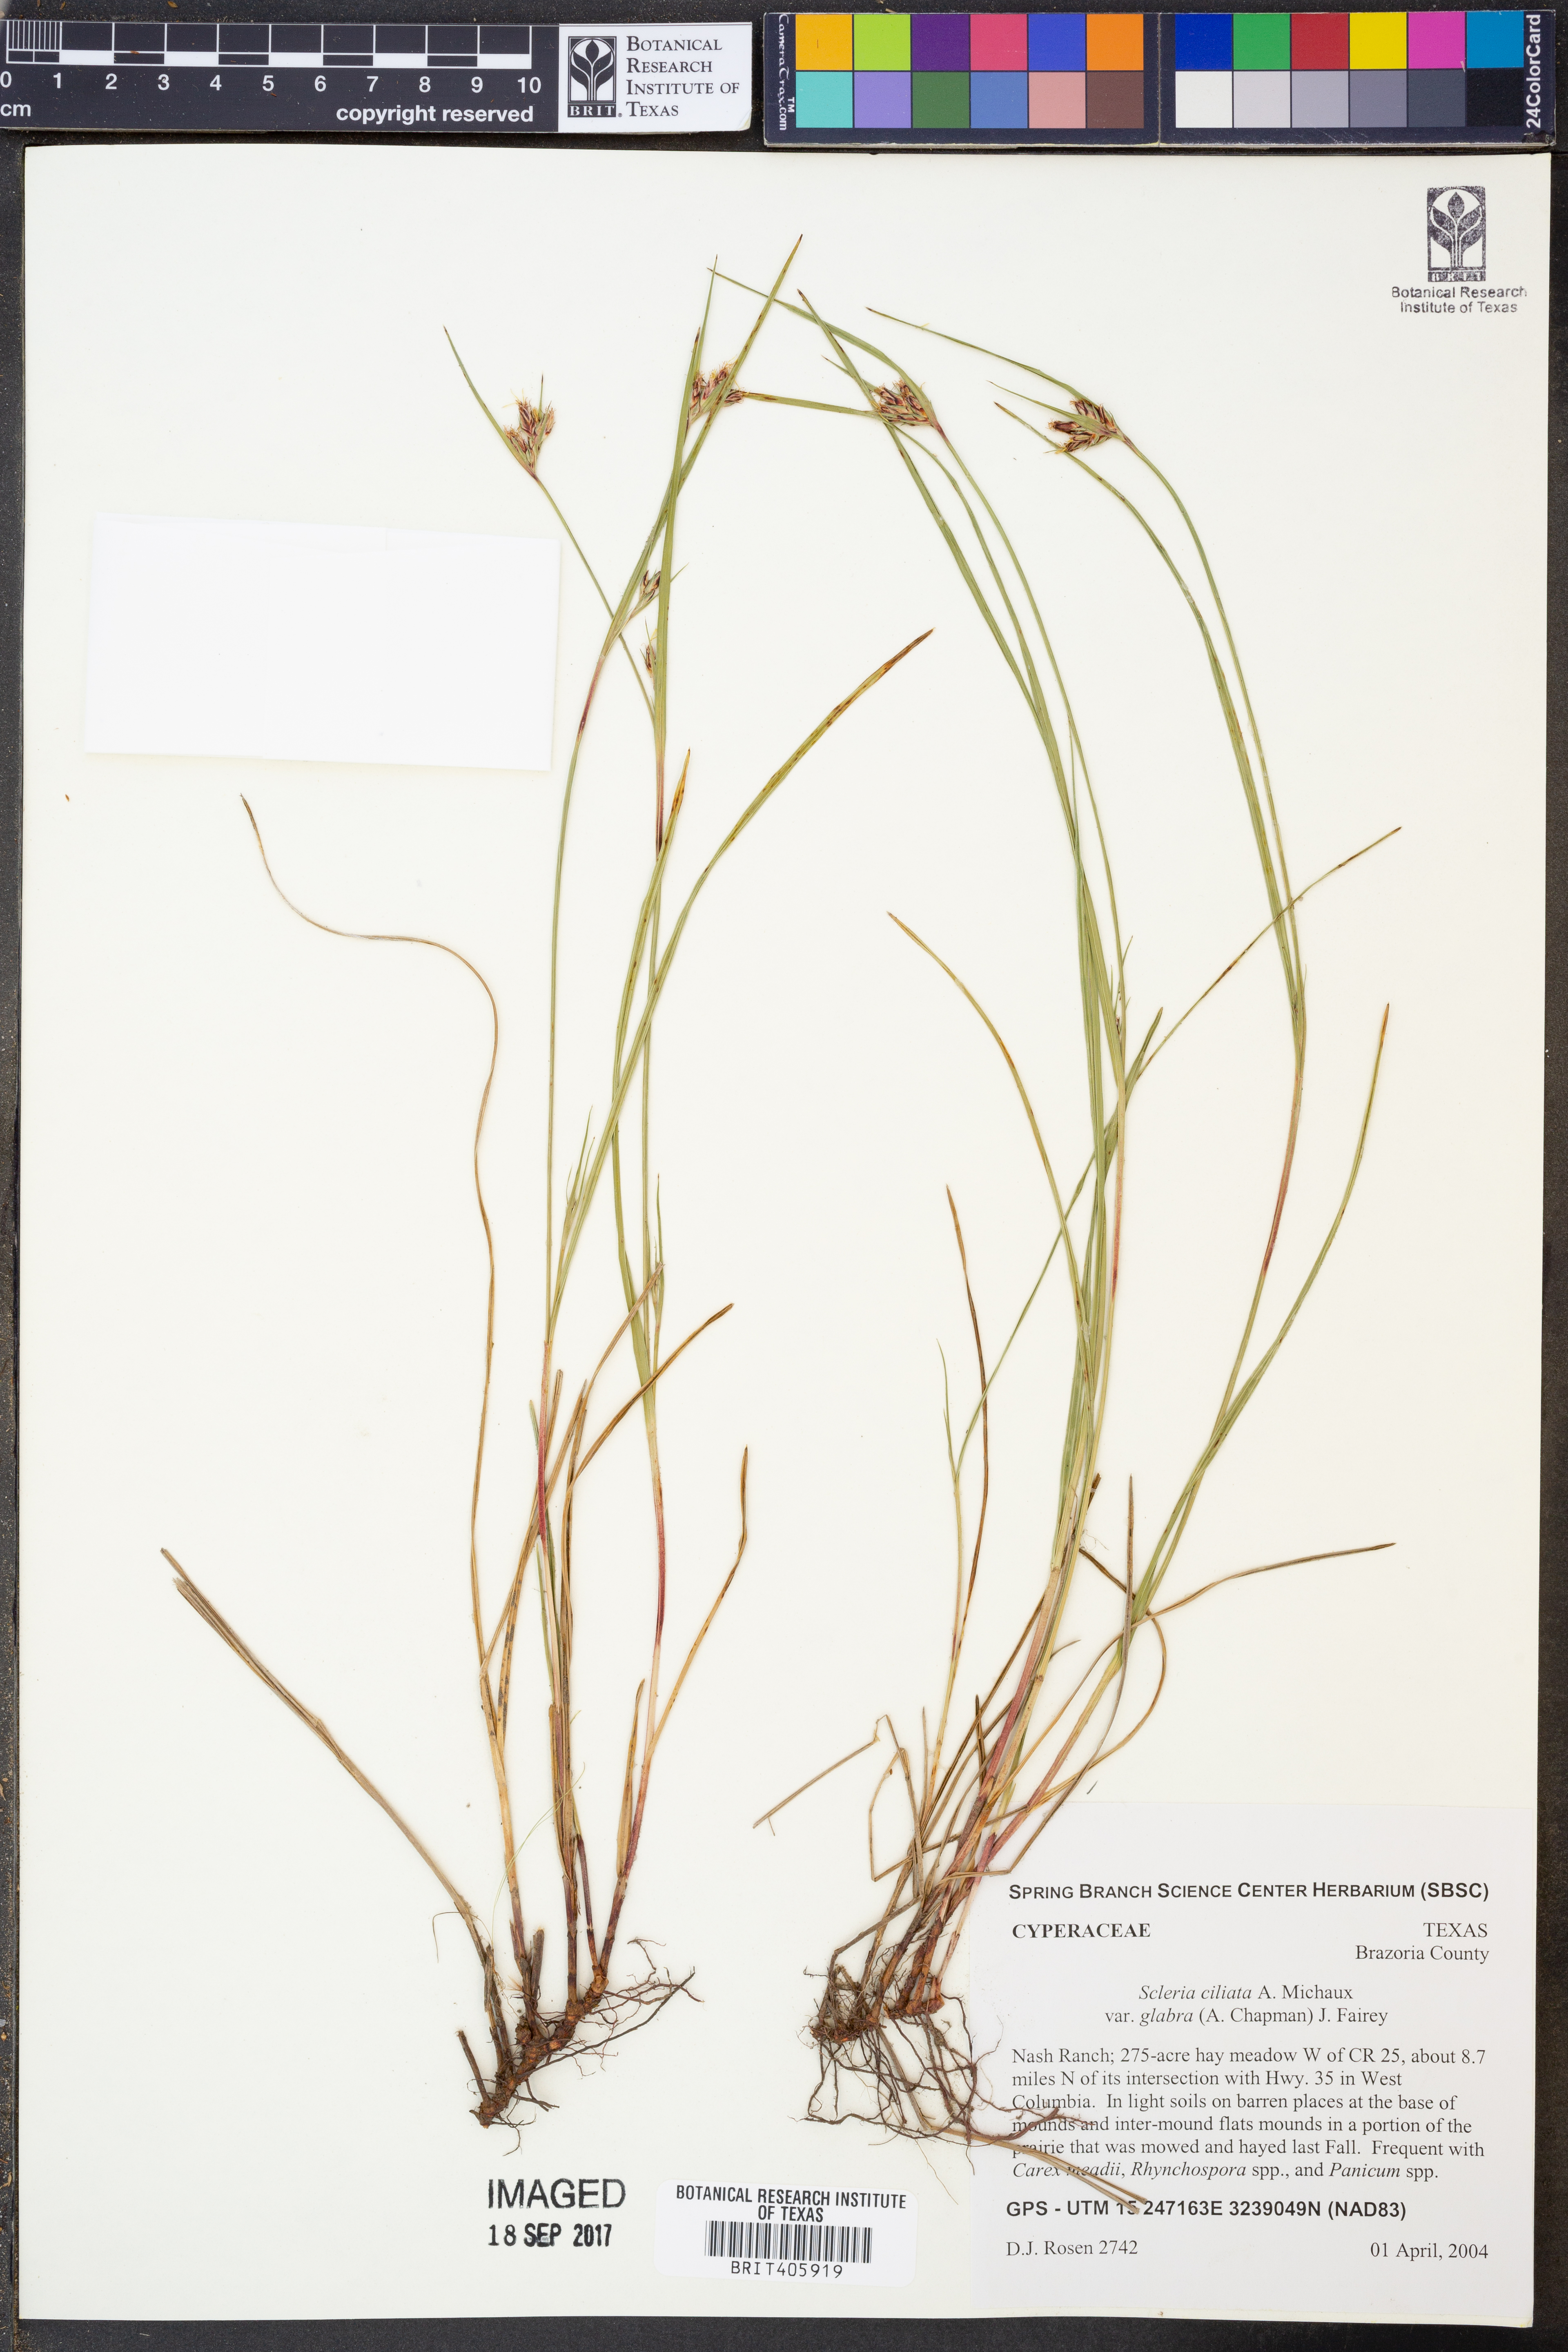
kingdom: Plantae
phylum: Tracheophyta
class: Liliopsida
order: Poales
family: Cyperaceae
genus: Scleria
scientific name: Scleria ciliata
